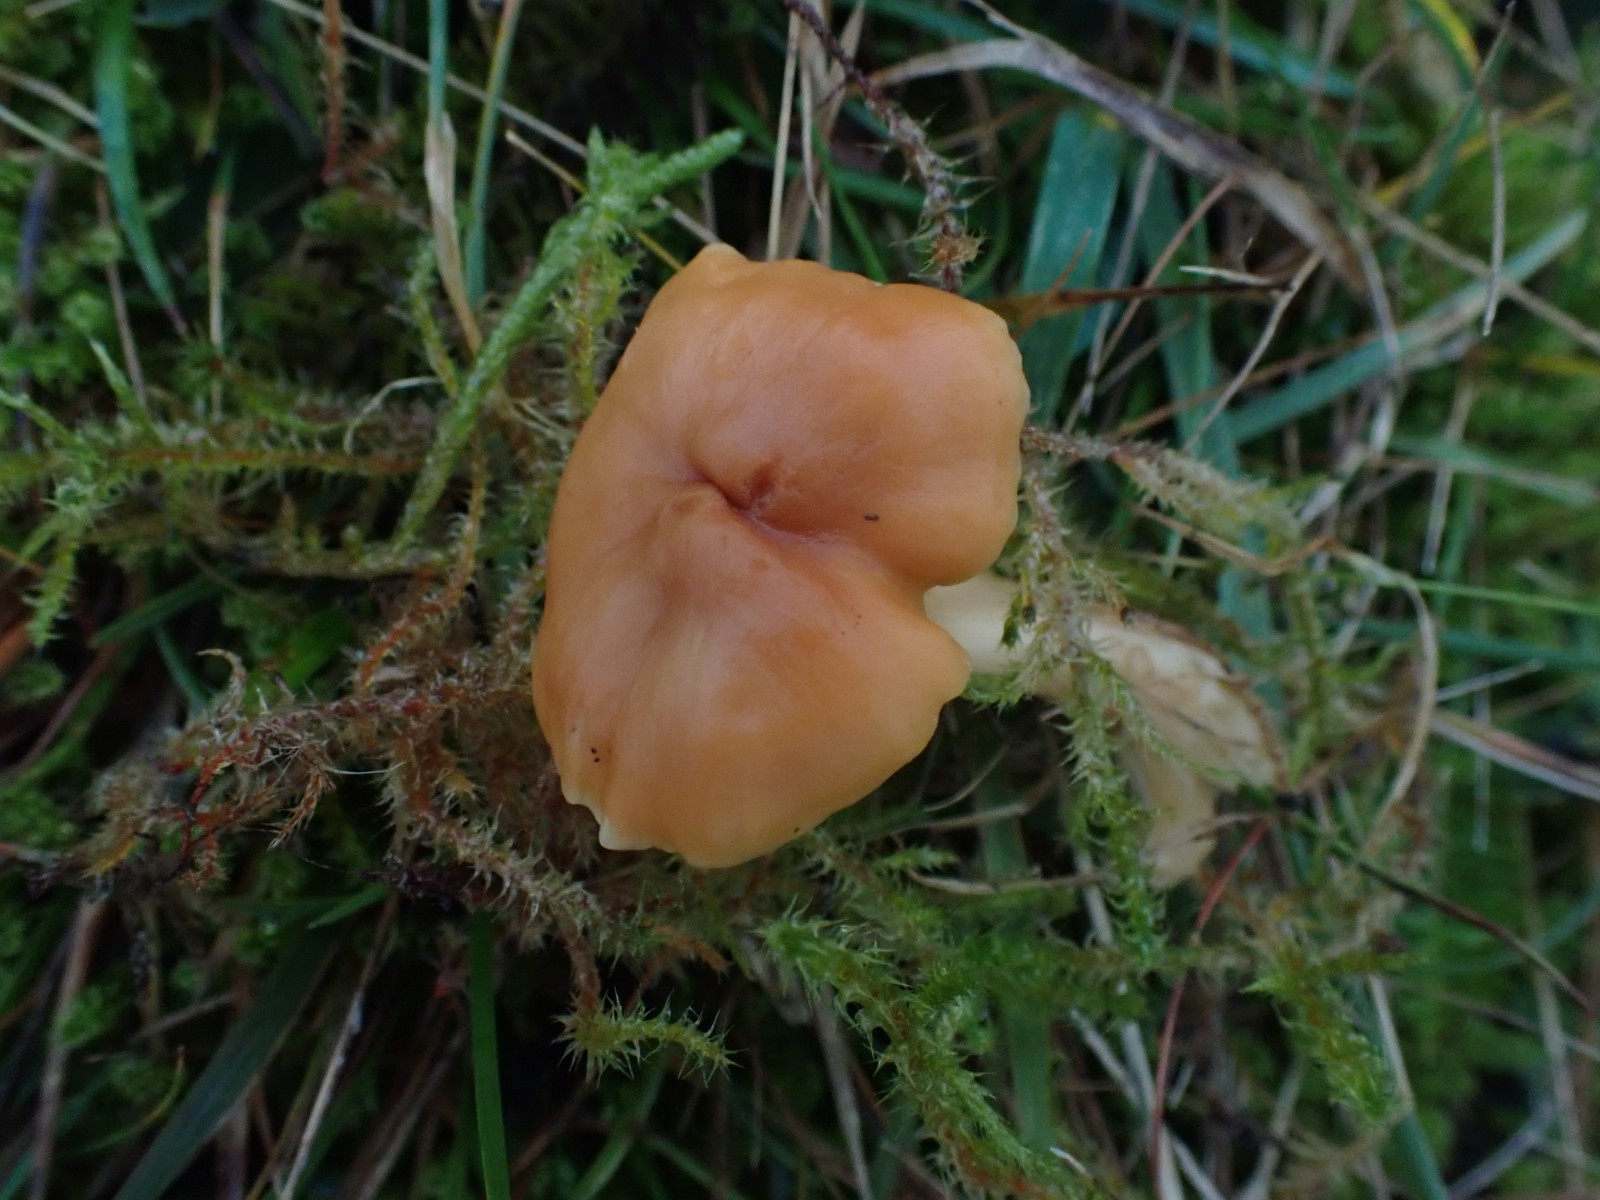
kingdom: Fungi
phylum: Basidiomycota
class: Agaricomycetes
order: Agaricales
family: Hygrophoraceae
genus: Cuphophyllus
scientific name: Cuphophyllus pratensis
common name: eng-vokshat
